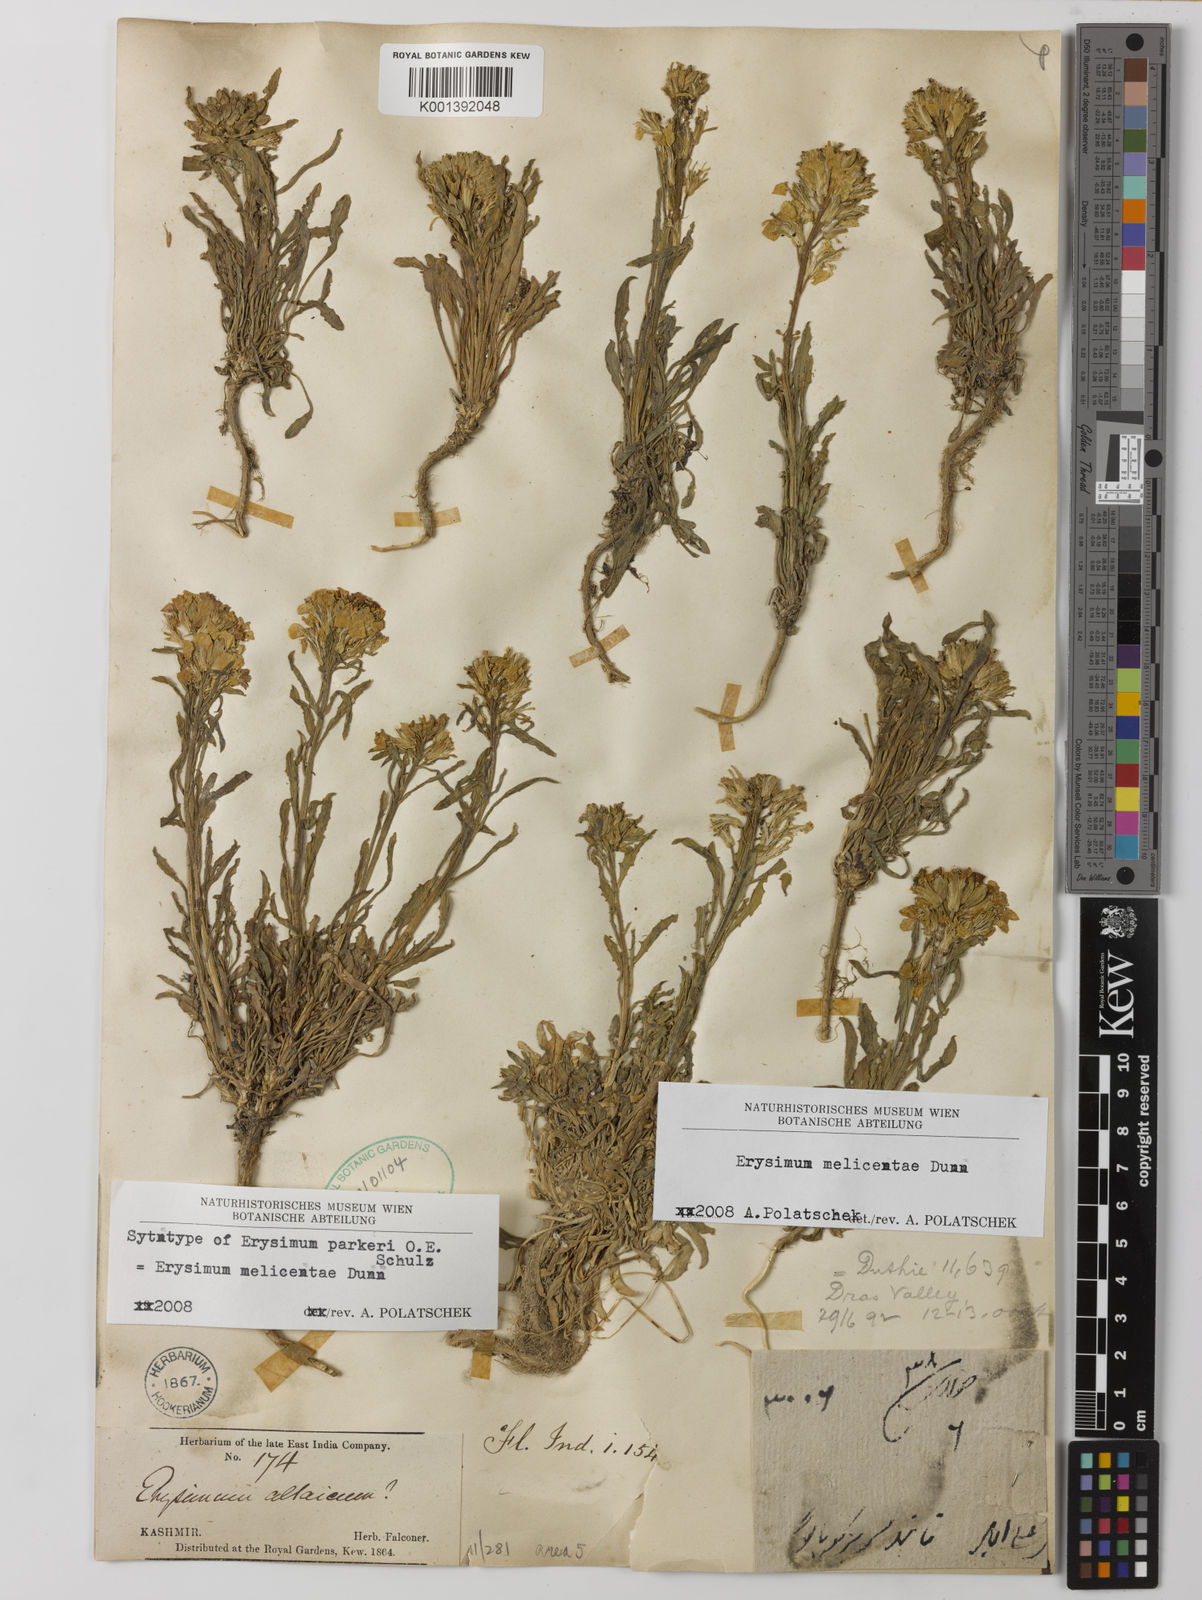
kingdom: Plantae
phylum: Tracheophyta
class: Magnoliopsida
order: Brassicales
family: Brassicaceae
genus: Erysimum
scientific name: Erysimum melicentae
